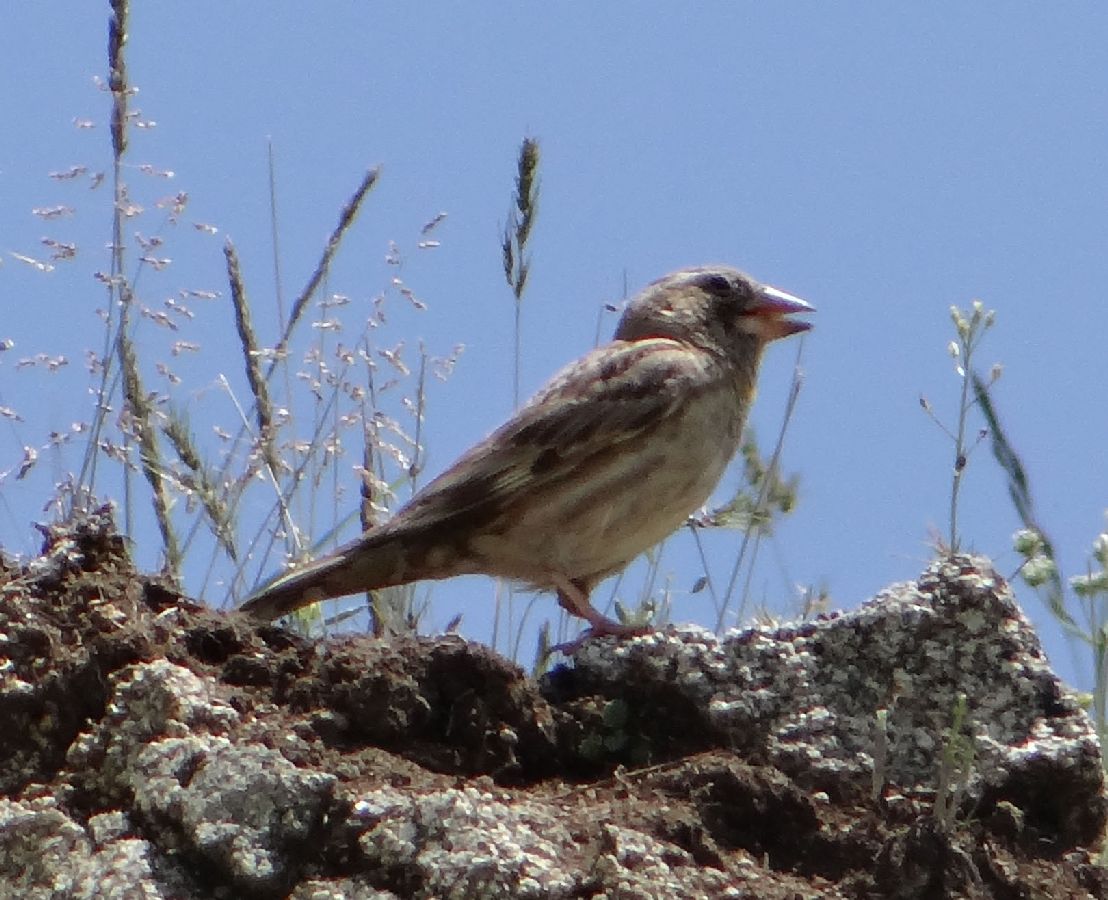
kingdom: Animalia
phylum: Chordata
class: Aves
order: Passeriformes
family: Passeridae
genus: Petronia
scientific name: Petronia petronia
